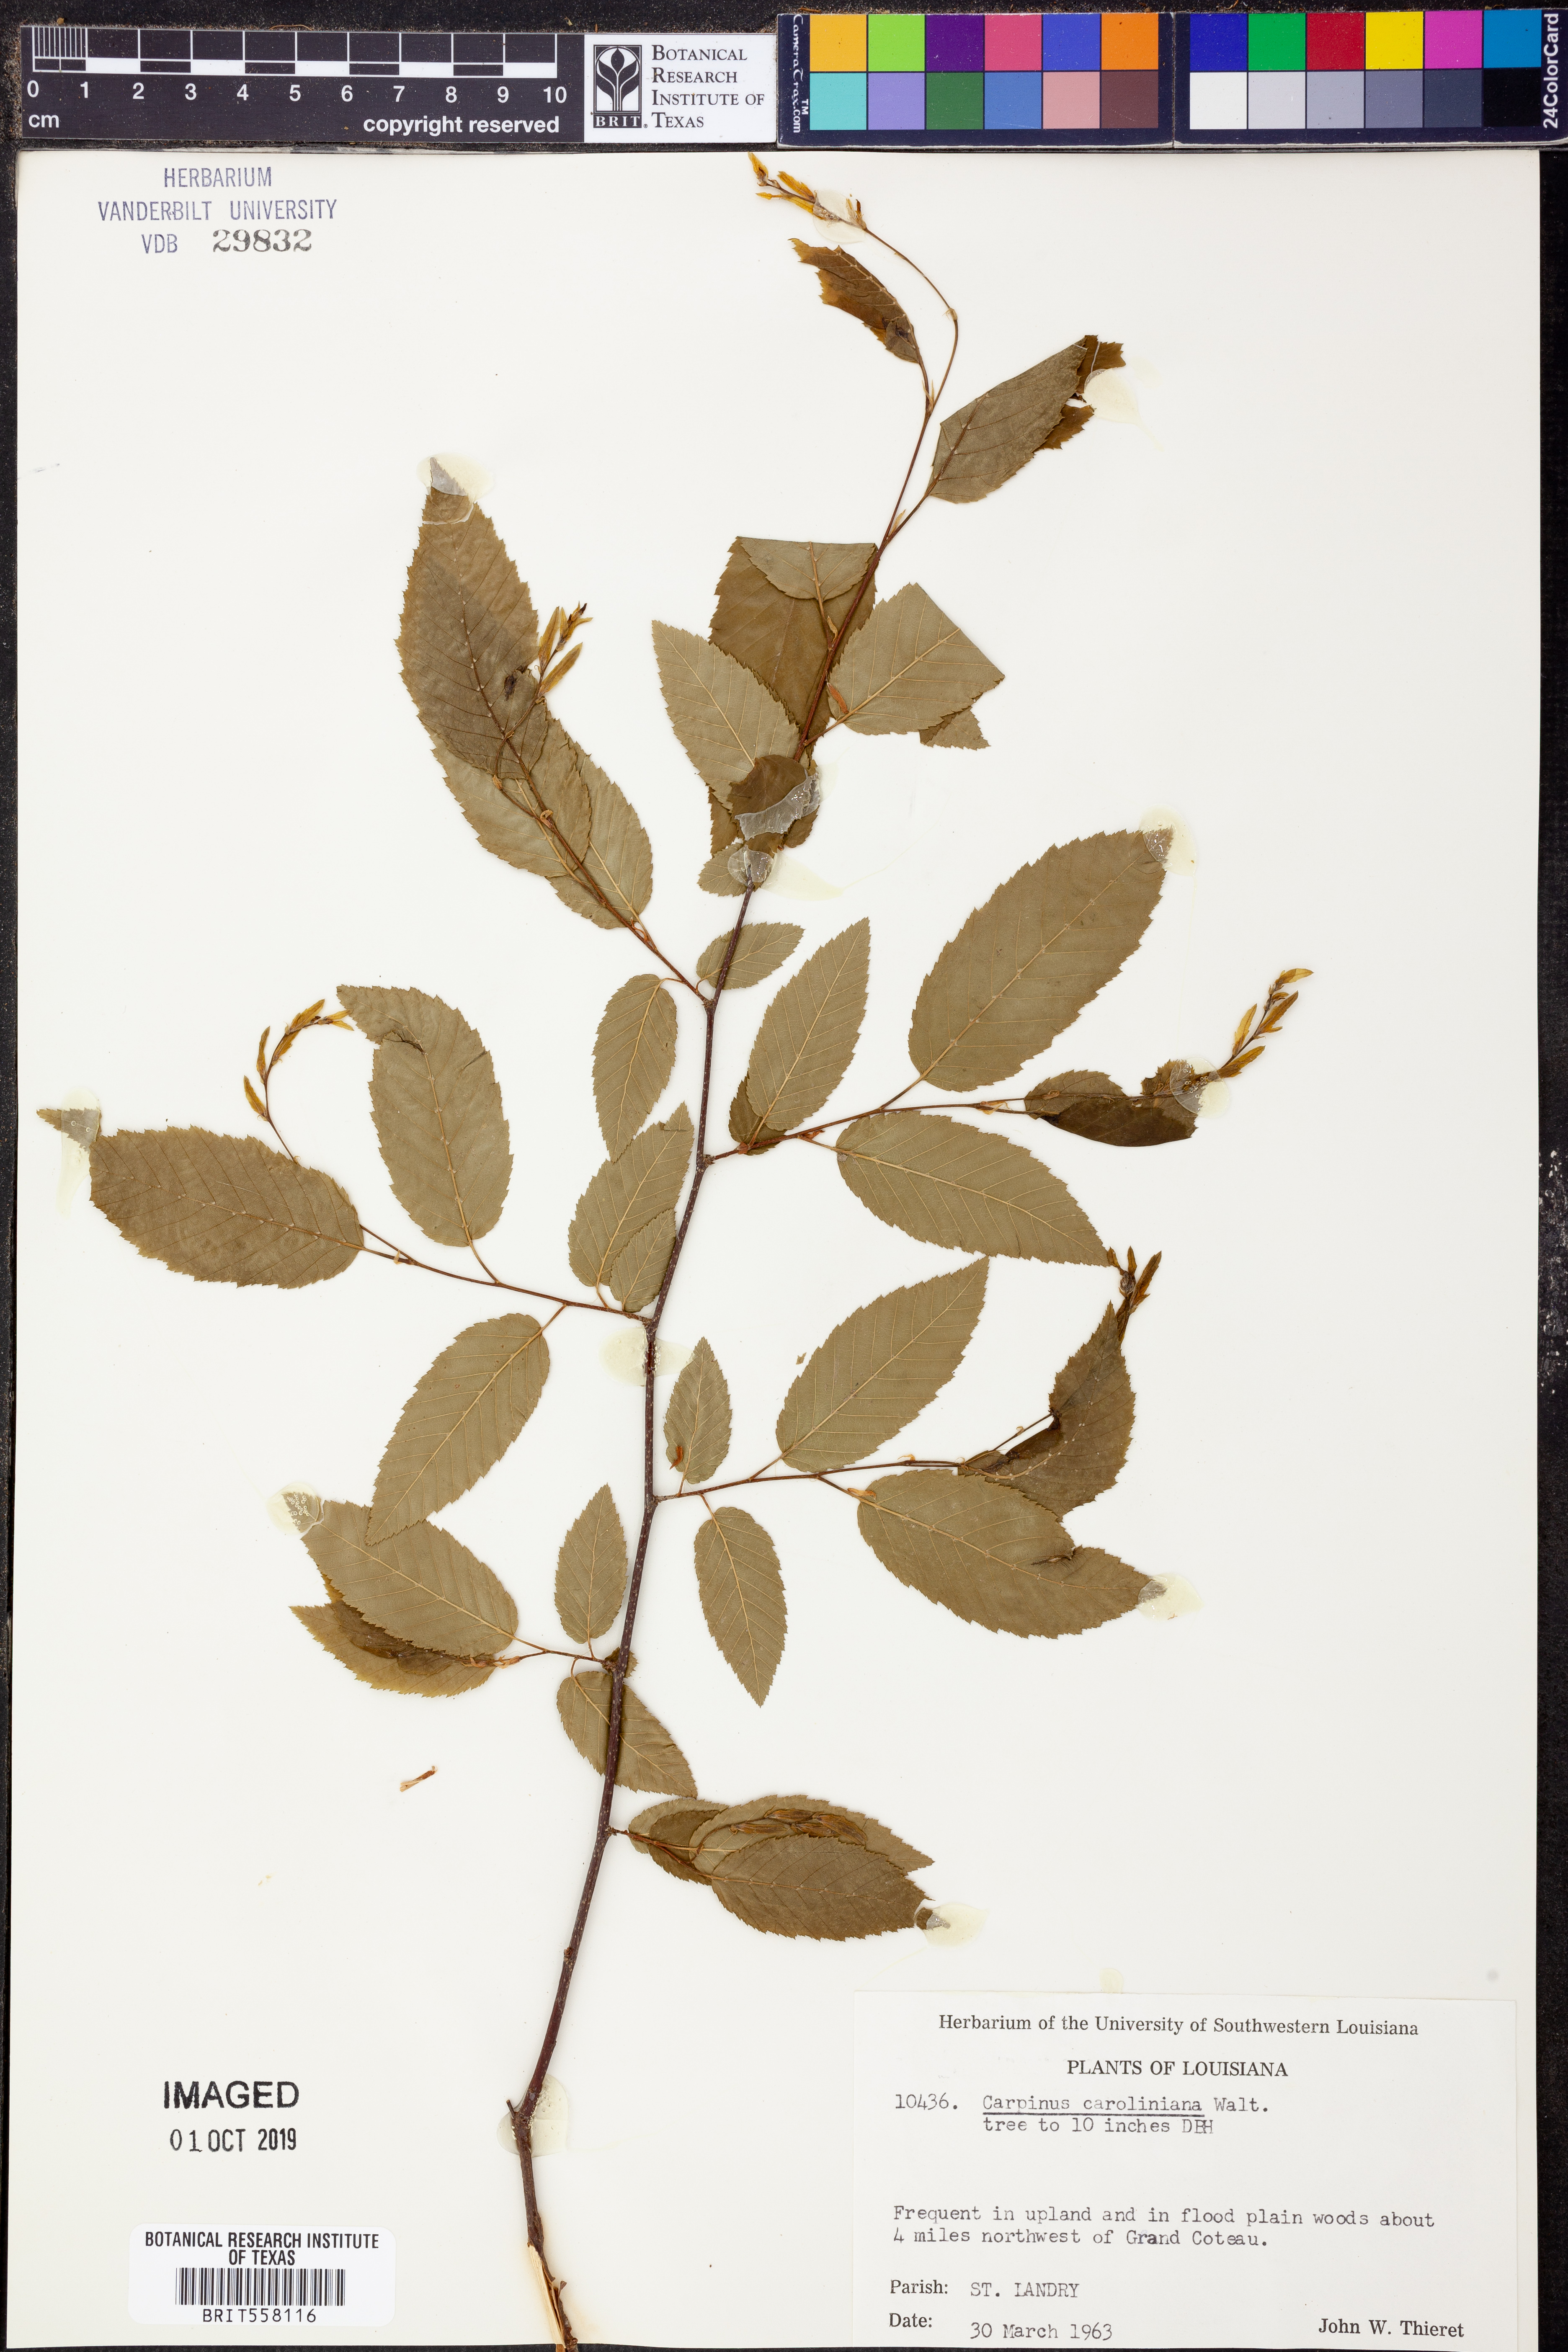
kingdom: Plantae
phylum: Tracheophyta
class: Magnoliopsida
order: Fagales
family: Betulaceae
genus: Carpinus
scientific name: Carpinus caroliniana
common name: American hornbeam
